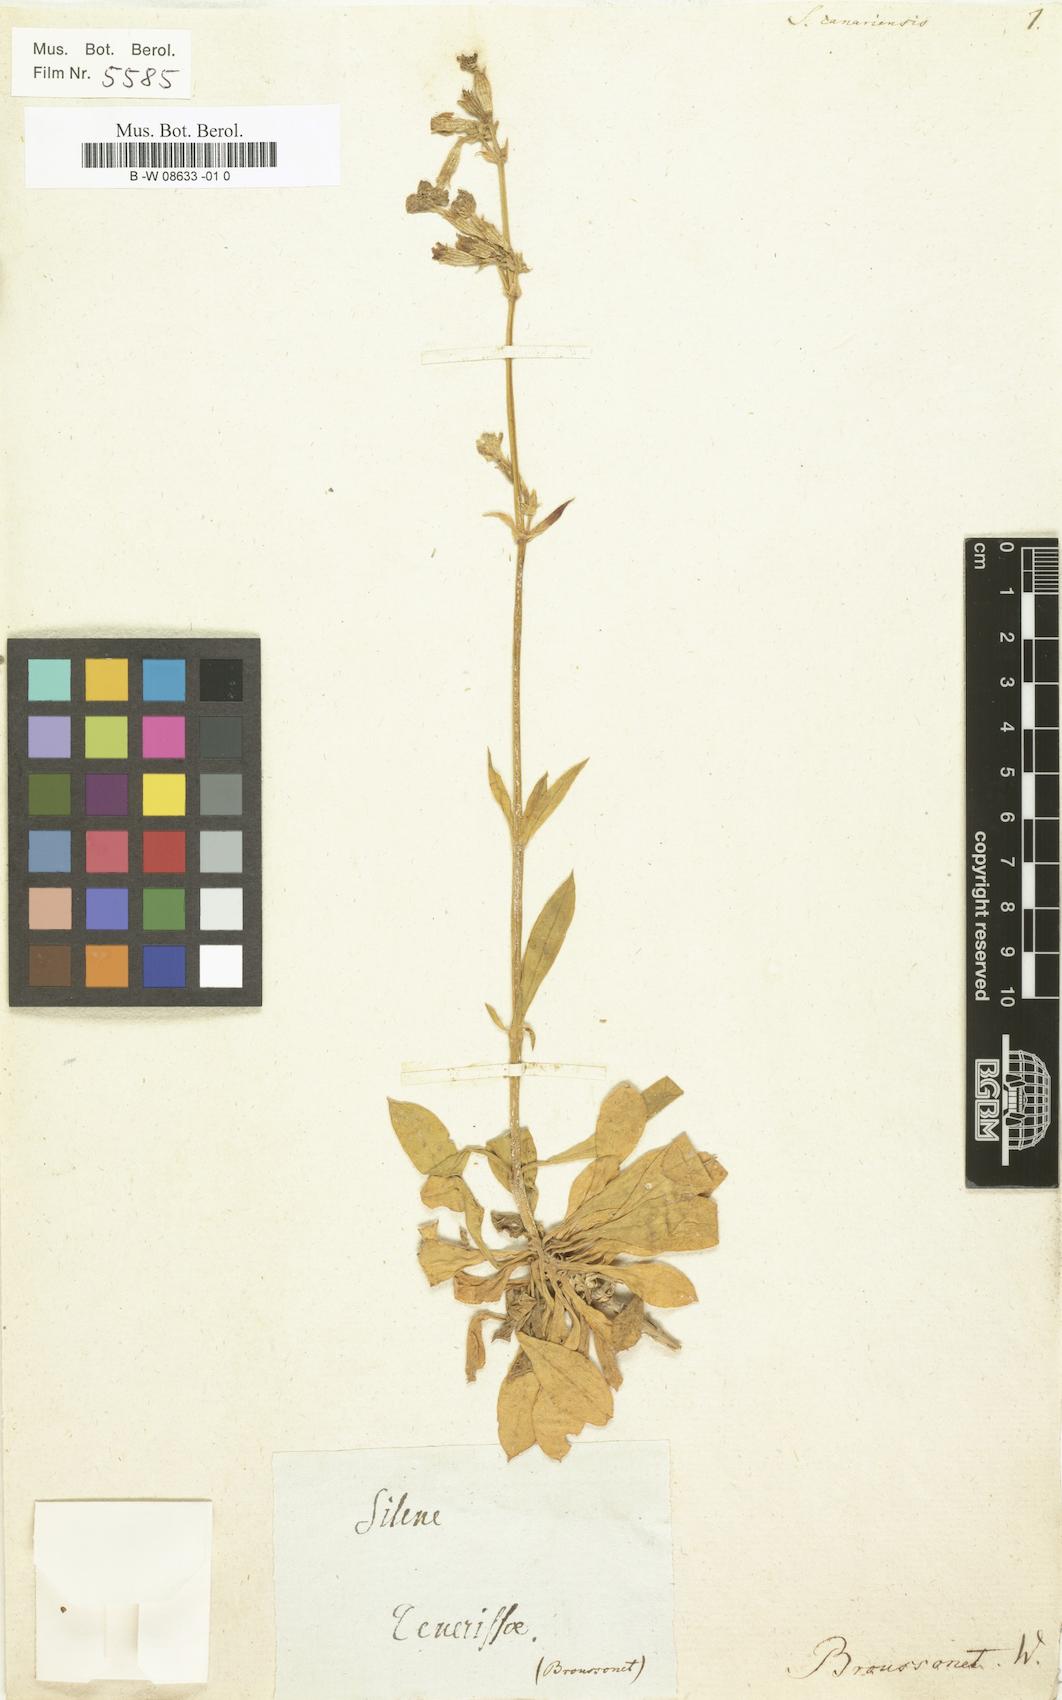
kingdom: Plantae
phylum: Tracheophyta
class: Magnoliopsida
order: Caryophyllales
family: Caryophyllaceae
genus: Silene
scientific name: Silene canariensis
